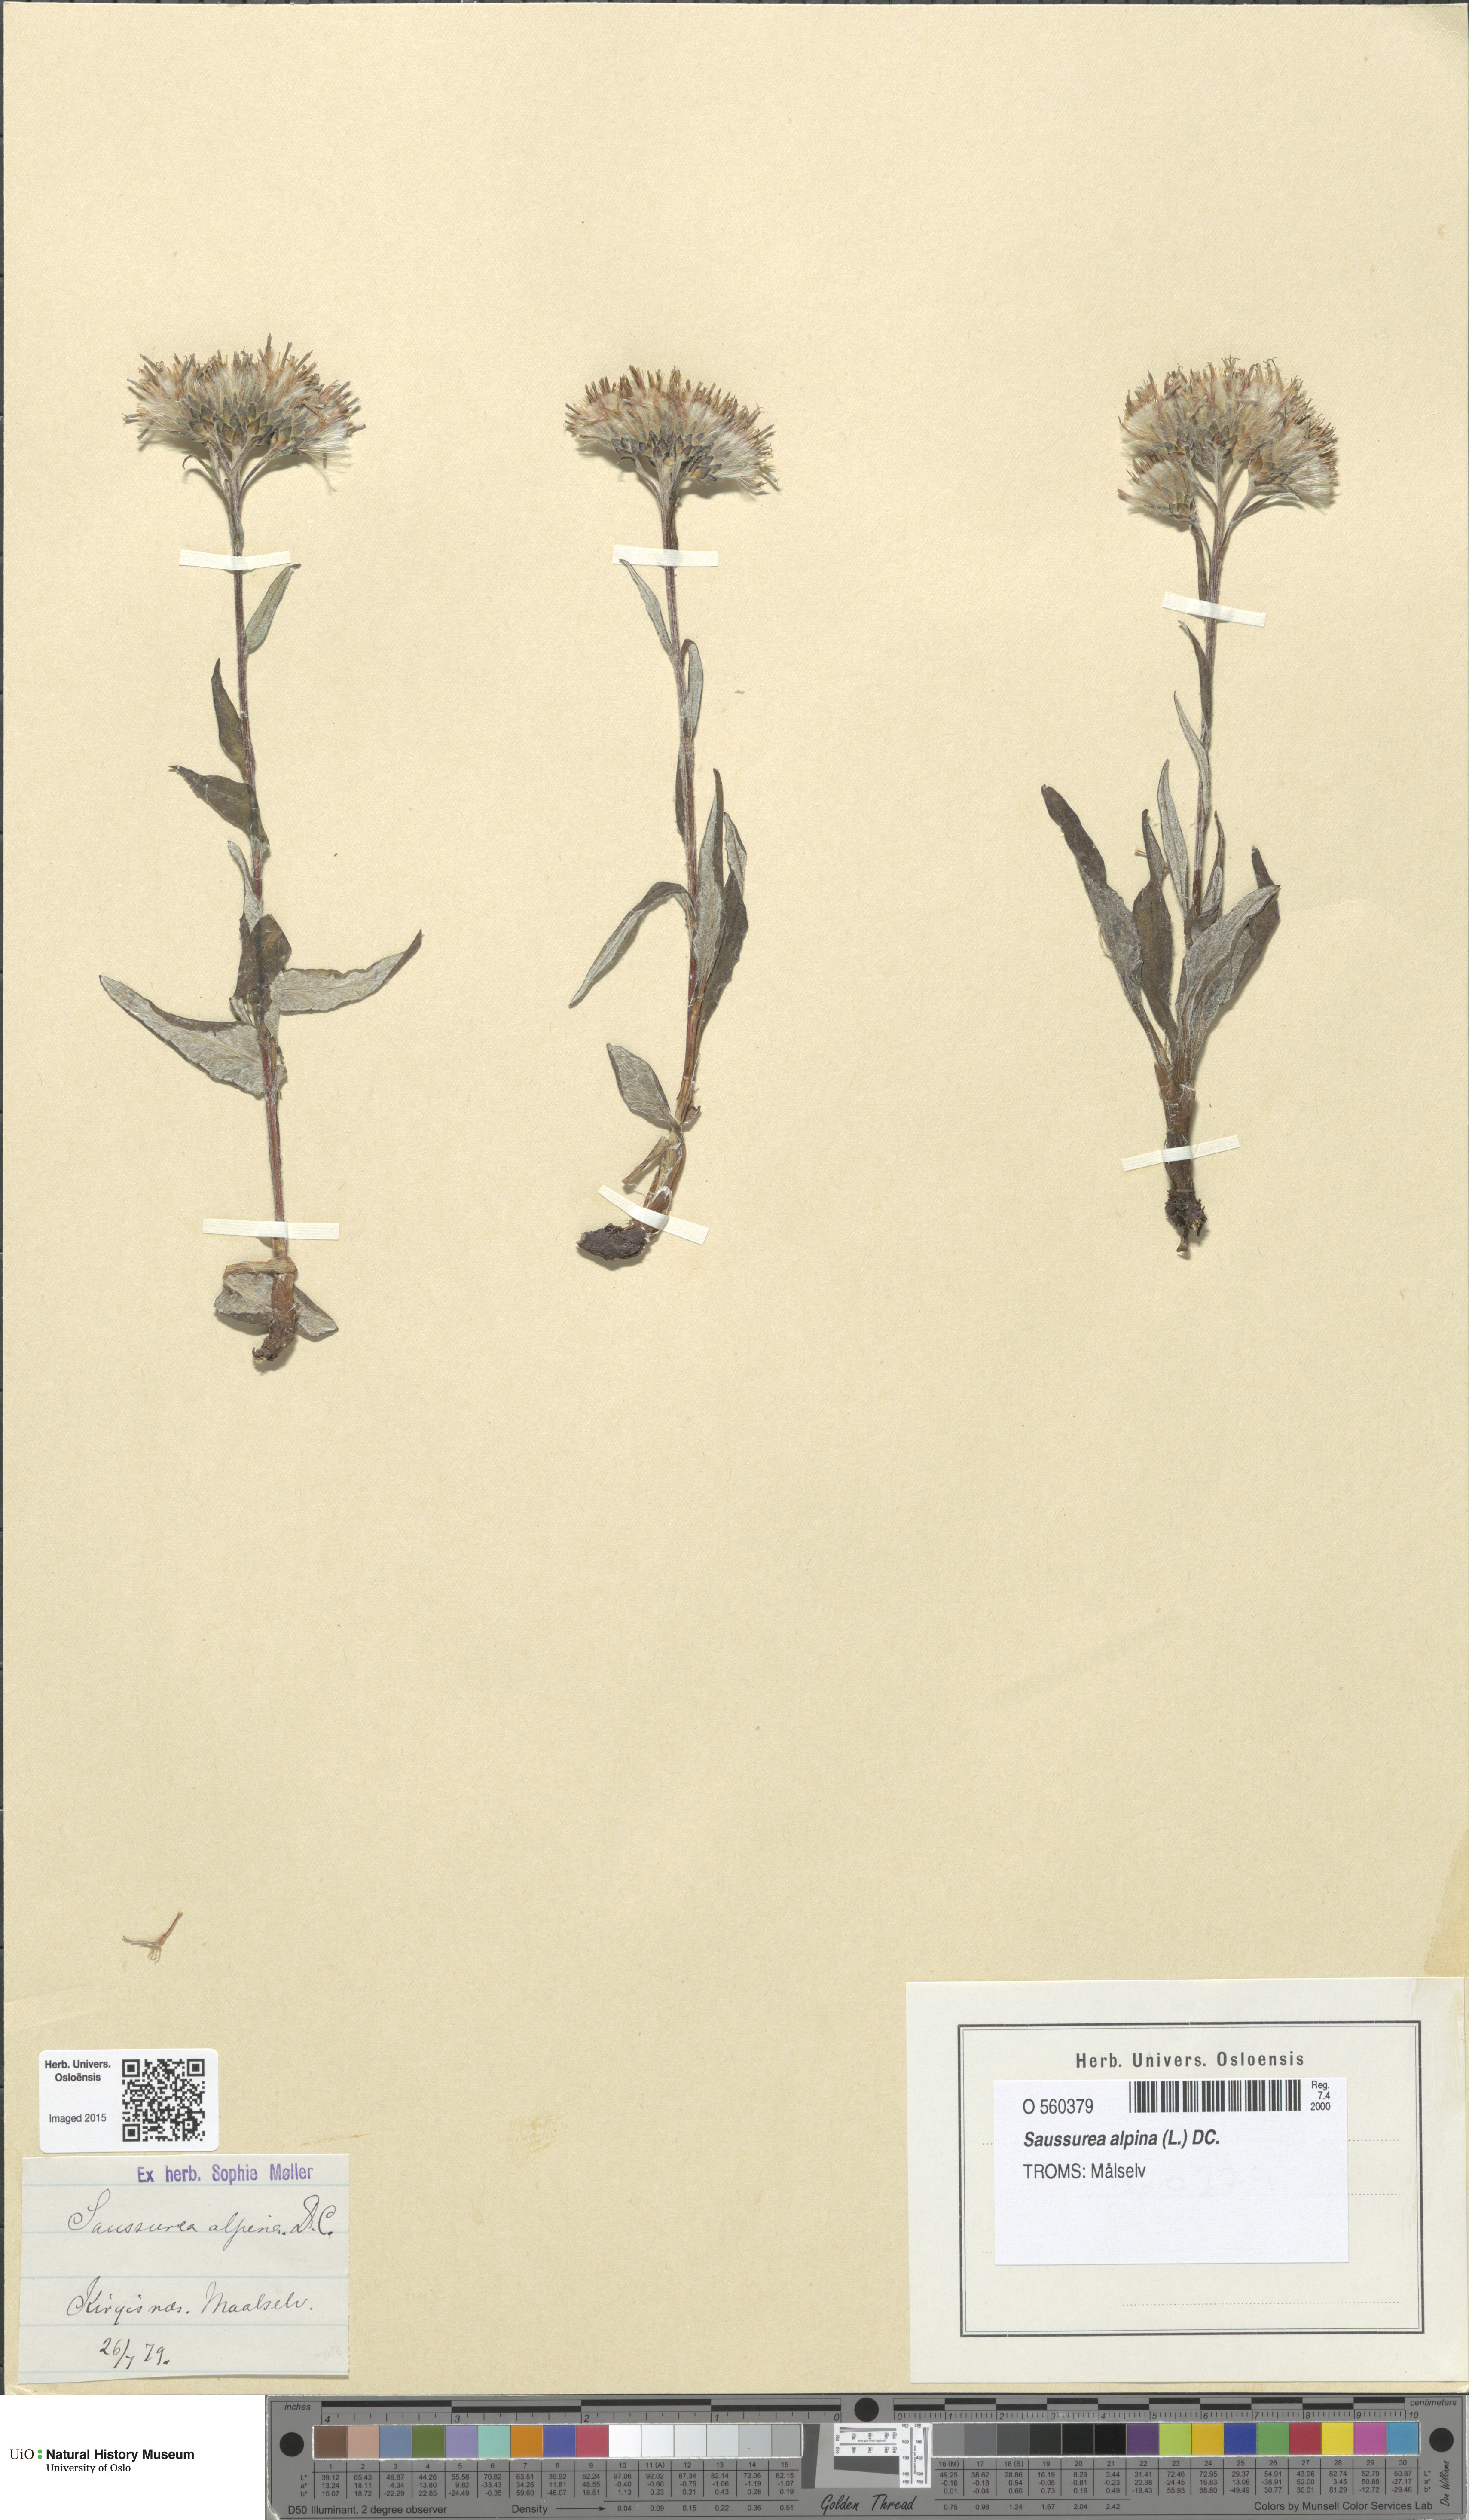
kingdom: Plantae
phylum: Tracheophyta
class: Magnoliopsida
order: Asterales
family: Asteraceae
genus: Saussurea
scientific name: Saussurea alpina
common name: Alpine saw-wort
